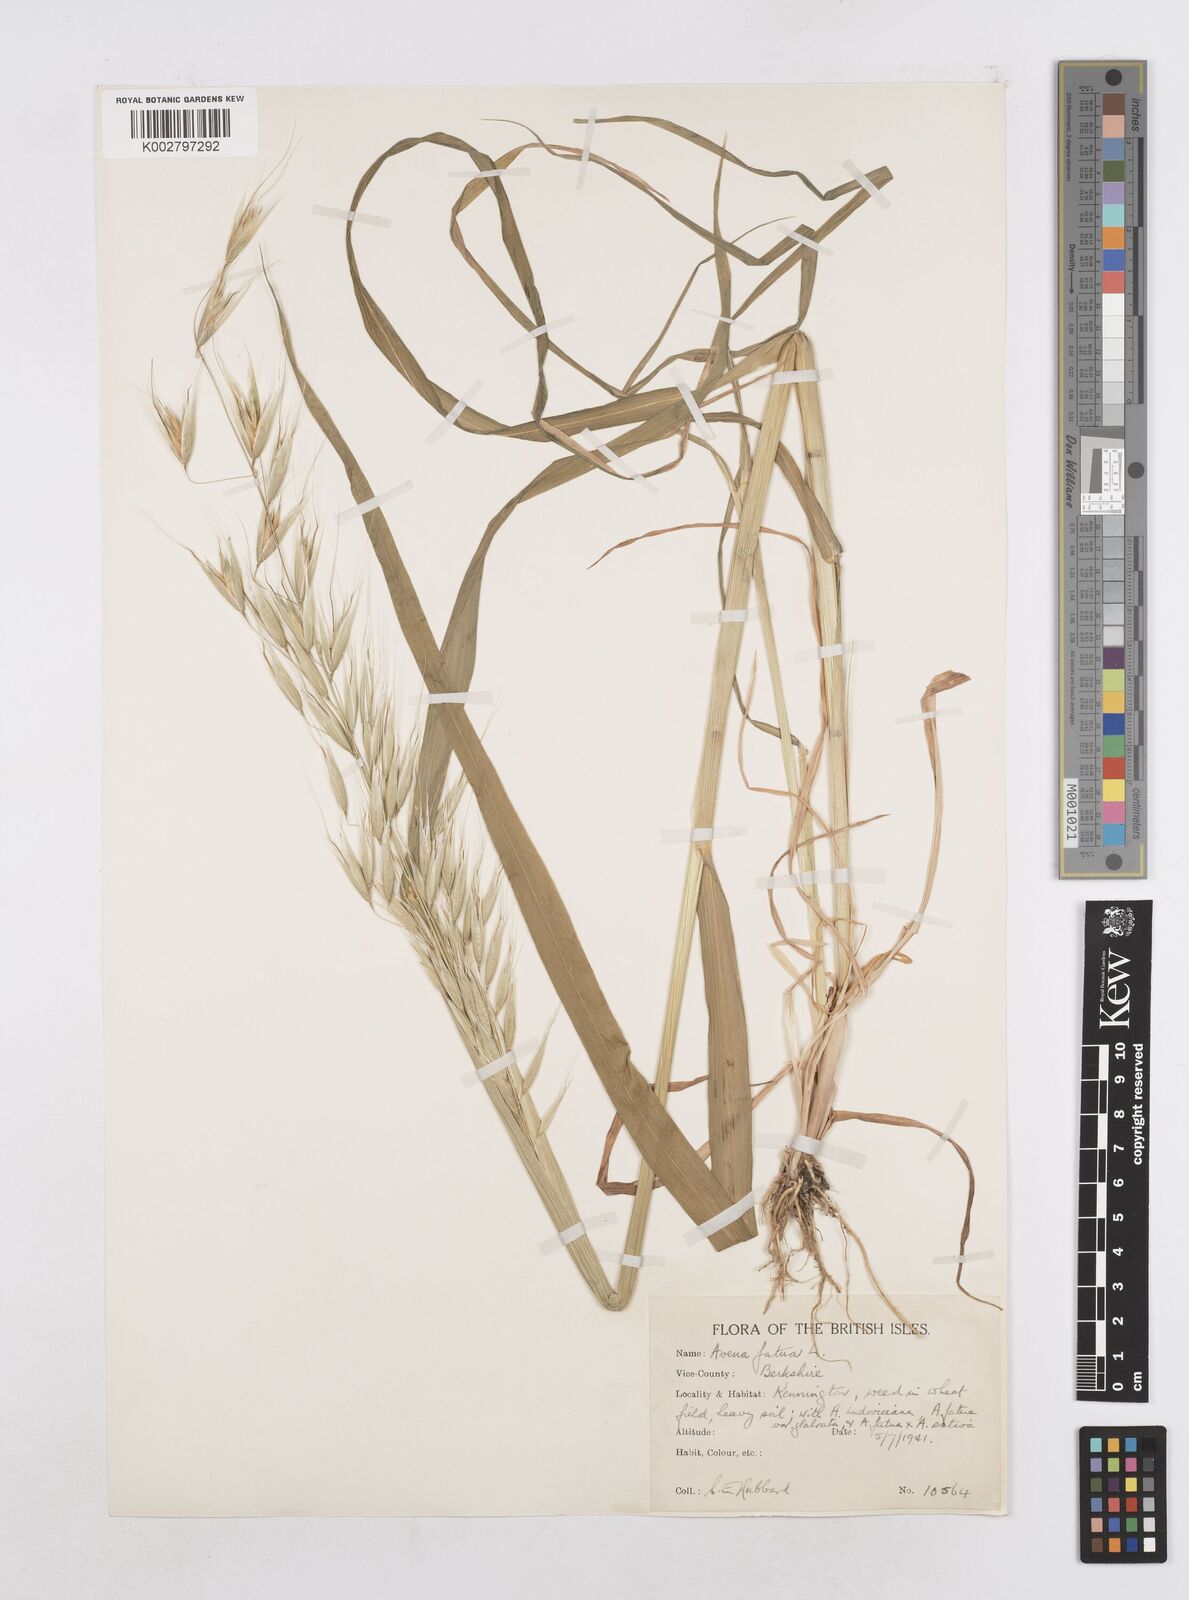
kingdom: Plantae
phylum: Tracheophyta
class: Liliopsida
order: Poales
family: Poaceae
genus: Avena
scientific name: Avena fatua
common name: Wild oat
